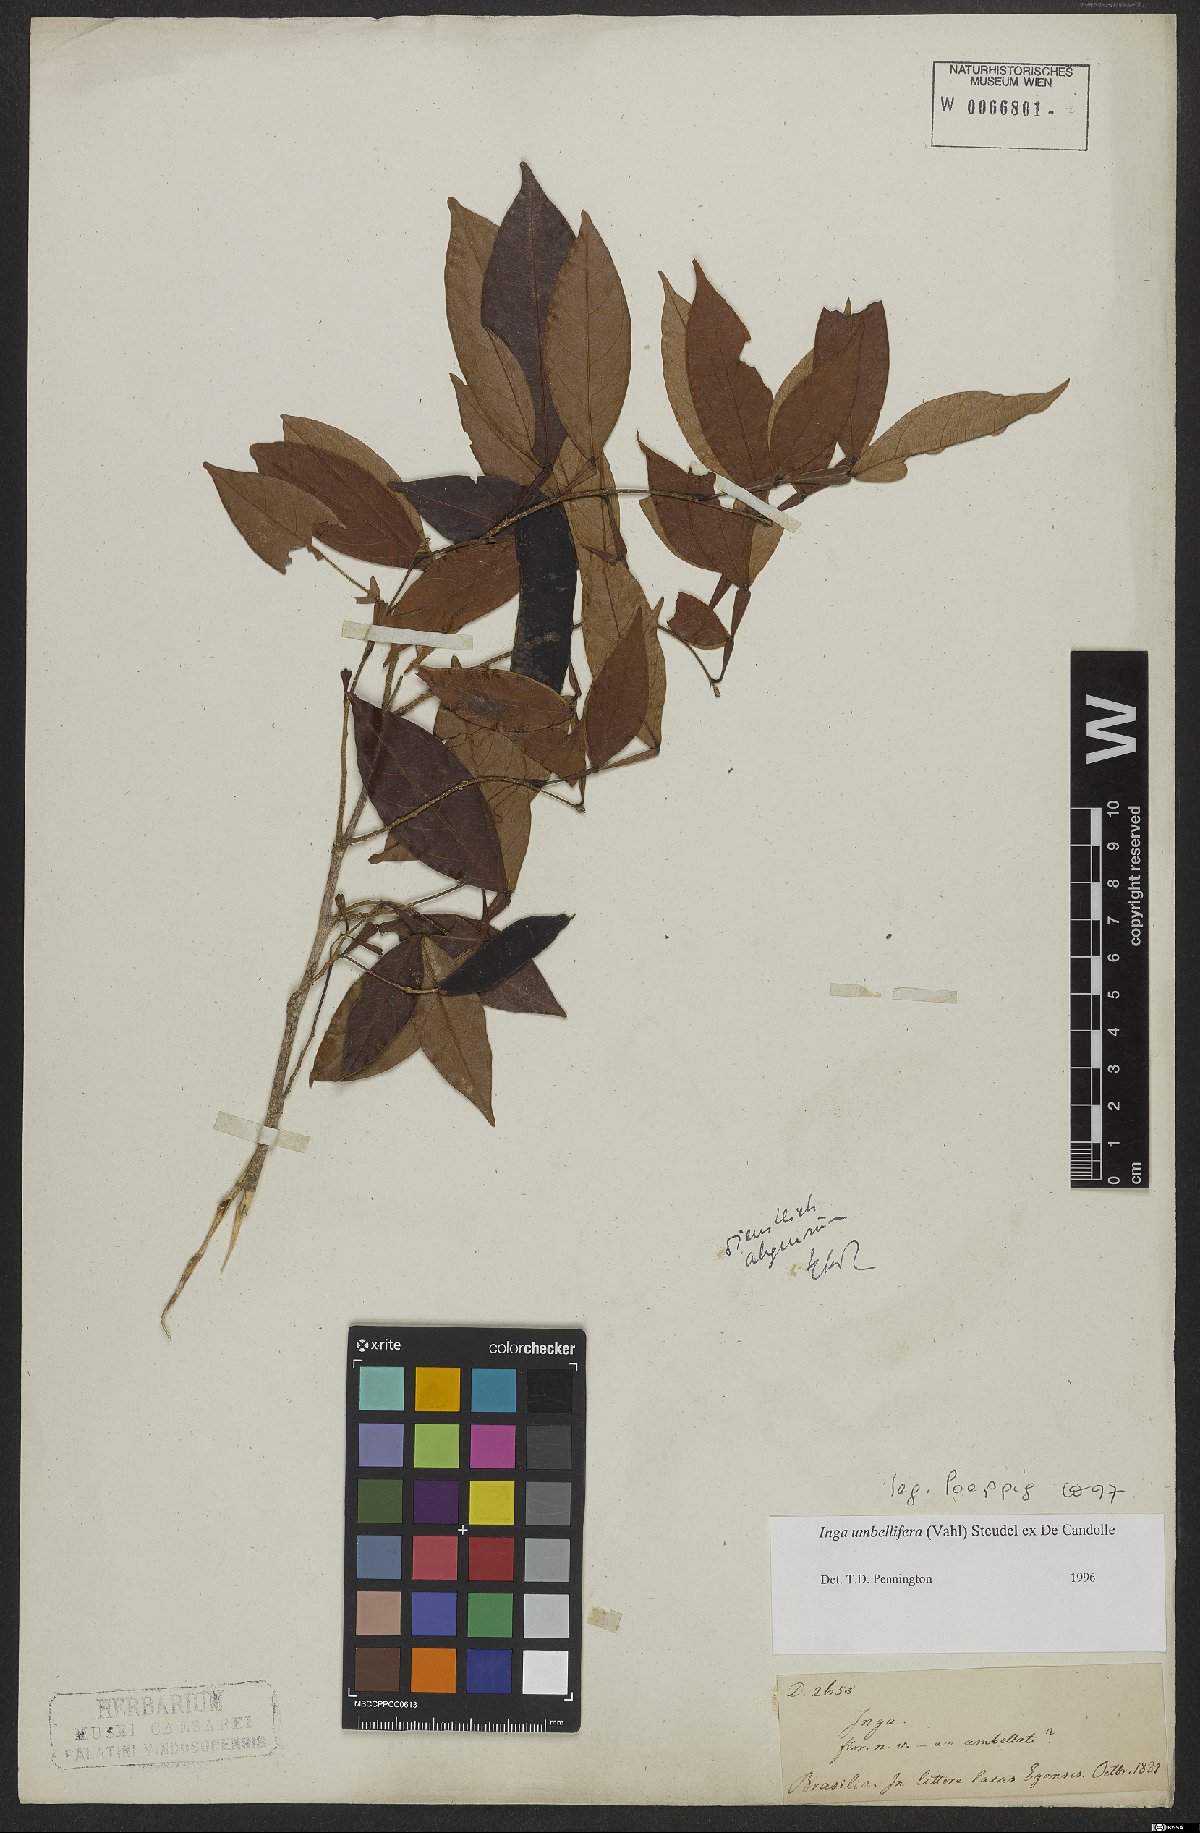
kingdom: Plantae
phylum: Tracheophyta
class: Magnoliopsida
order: Fabales
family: Fabaceae
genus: Inga
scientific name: Inga umbellifera
